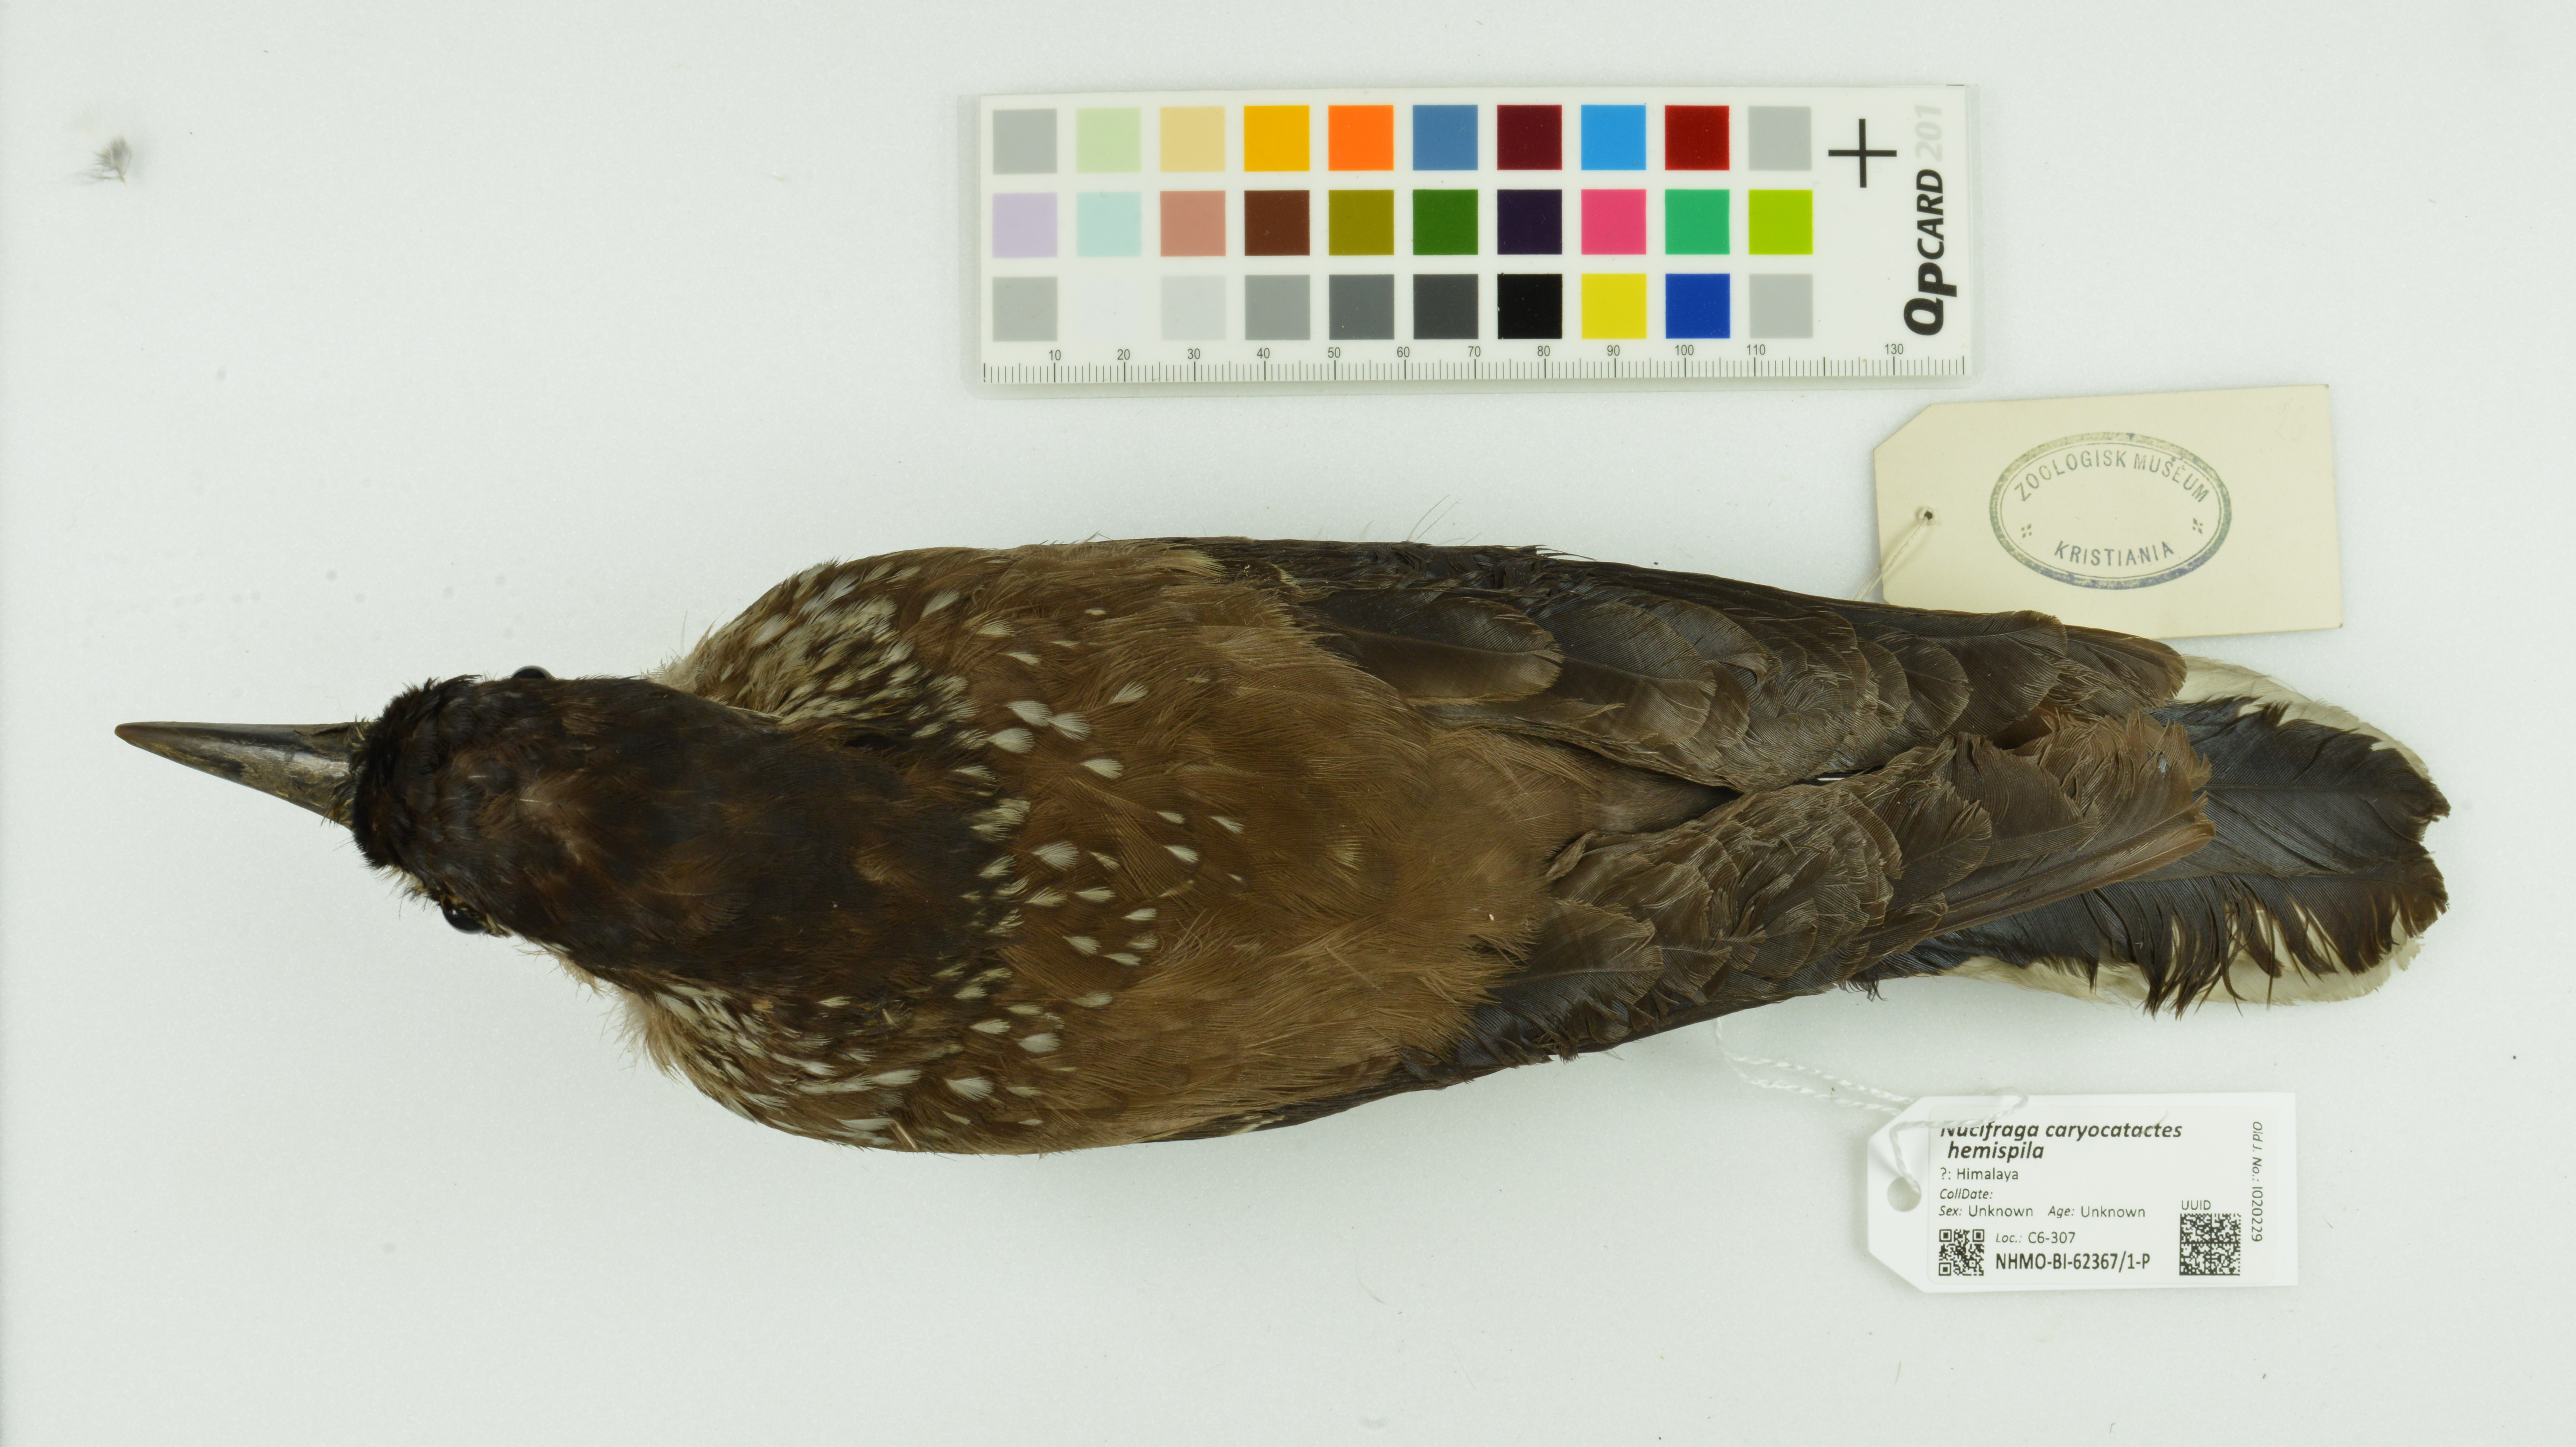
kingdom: Animalia
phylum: Chordata
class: Aves
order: Passeriformes
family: Corvidae
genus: Nucifraga
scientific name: Nucifraga caryocatactes
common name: Spotted nutcracker
